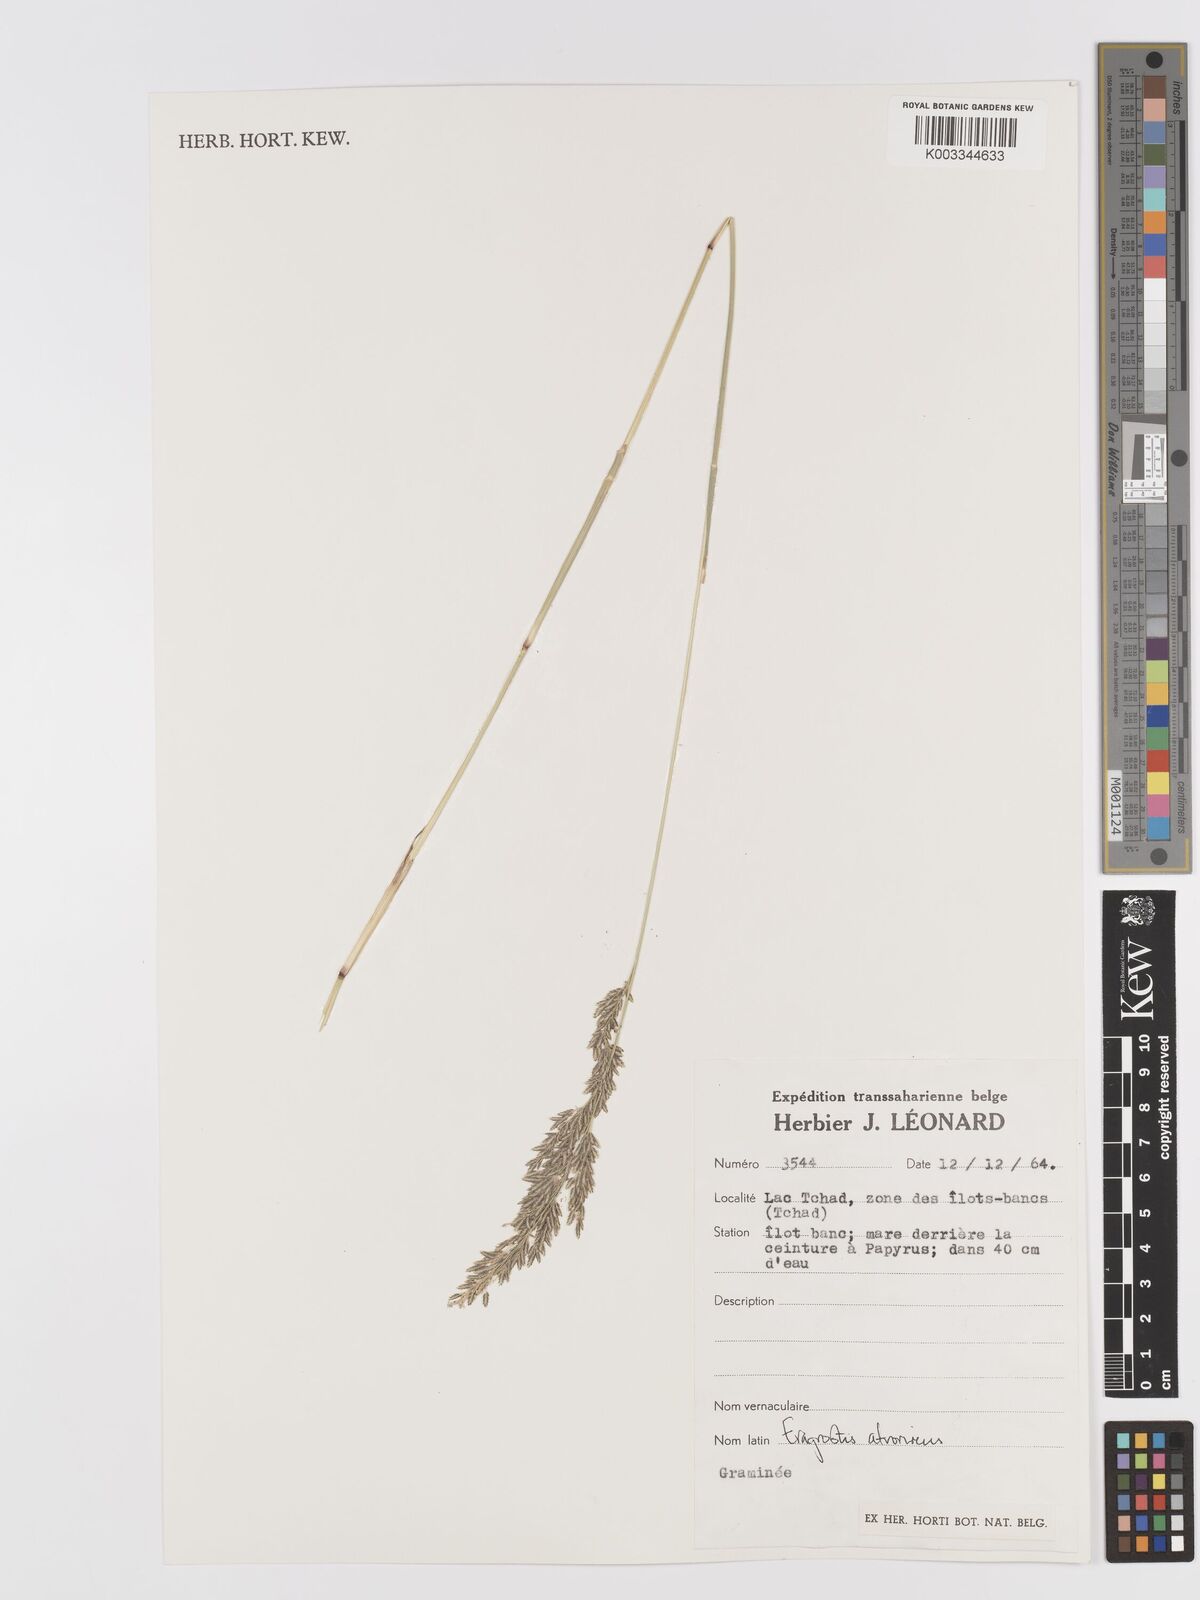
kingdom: Plantae
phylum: Tracheophyta
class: Liliopsida
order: Poales
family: Poaceae
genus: Eragrostis
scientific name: Eragrostis
